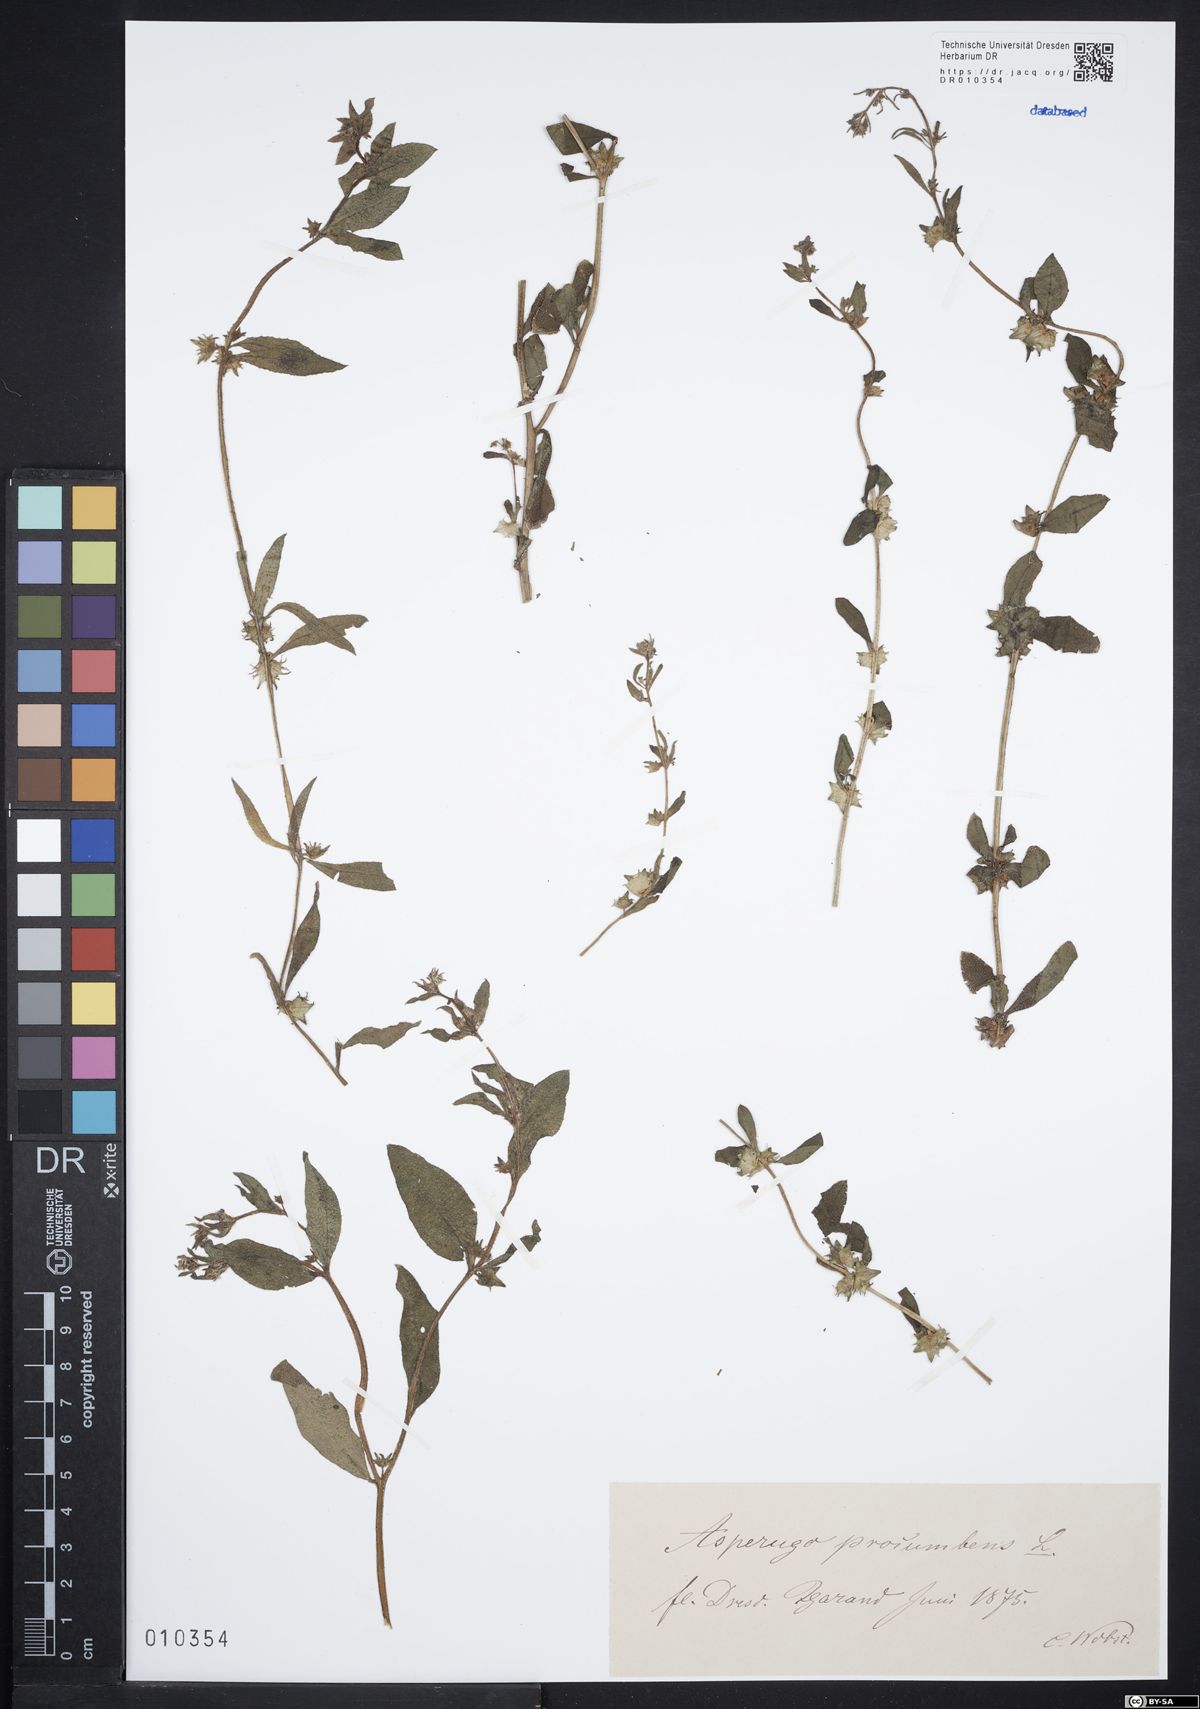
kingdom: Plantae
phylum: Tracheophyta
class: Magnoliopsida
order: Boraginales
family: Boraginaceae
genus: Asperugo
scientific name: Asperugo procumbens
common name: Madwort
